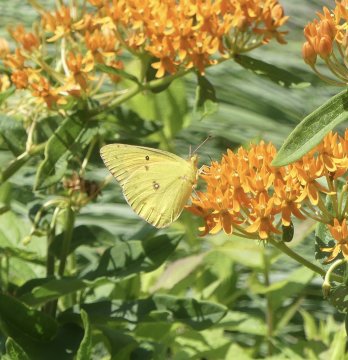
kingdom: Animalia
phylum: Arthropoda
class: Insecta
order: Lepidoptera
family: Pieridae
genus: Colias
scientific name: Colias eurytheme
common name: Orange Sulphur
